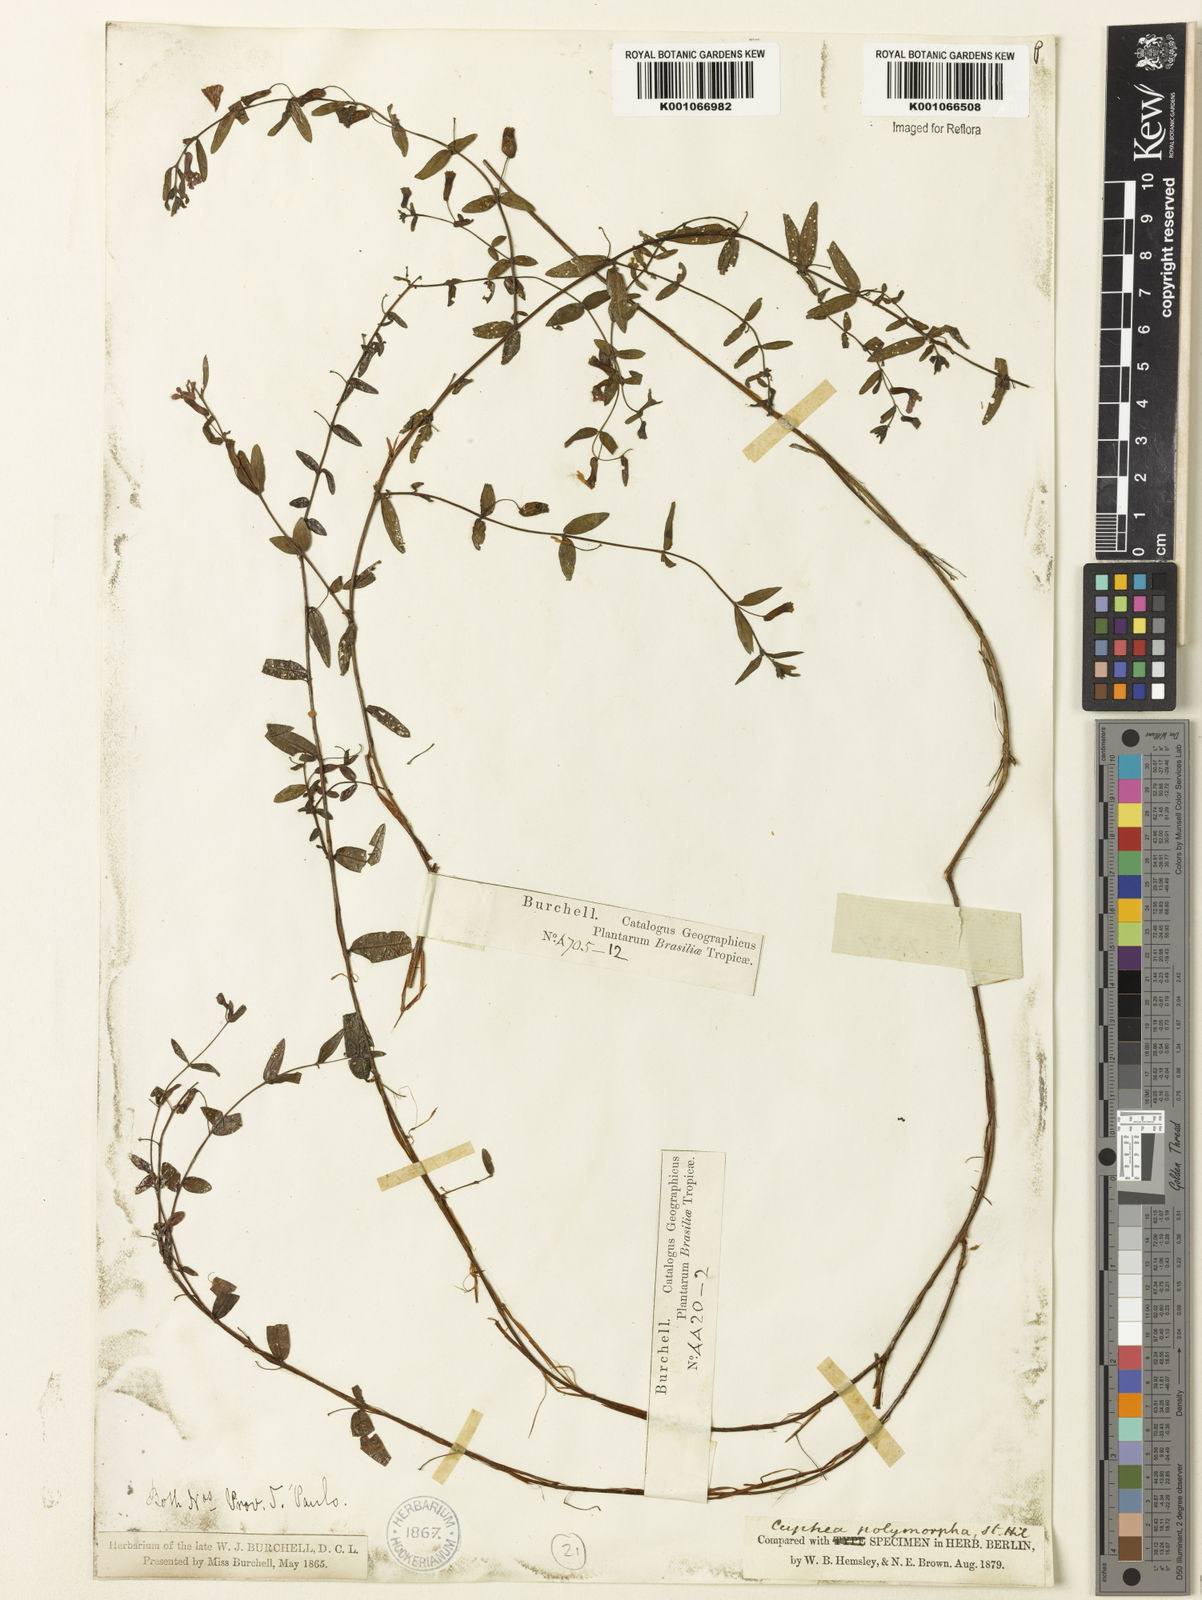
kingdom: Plantae
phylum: Tracheophyta
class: Magnoliopsida
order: Myrtales
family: Lythraceae
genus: Cuphea
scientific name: Cuphea polymorpha
